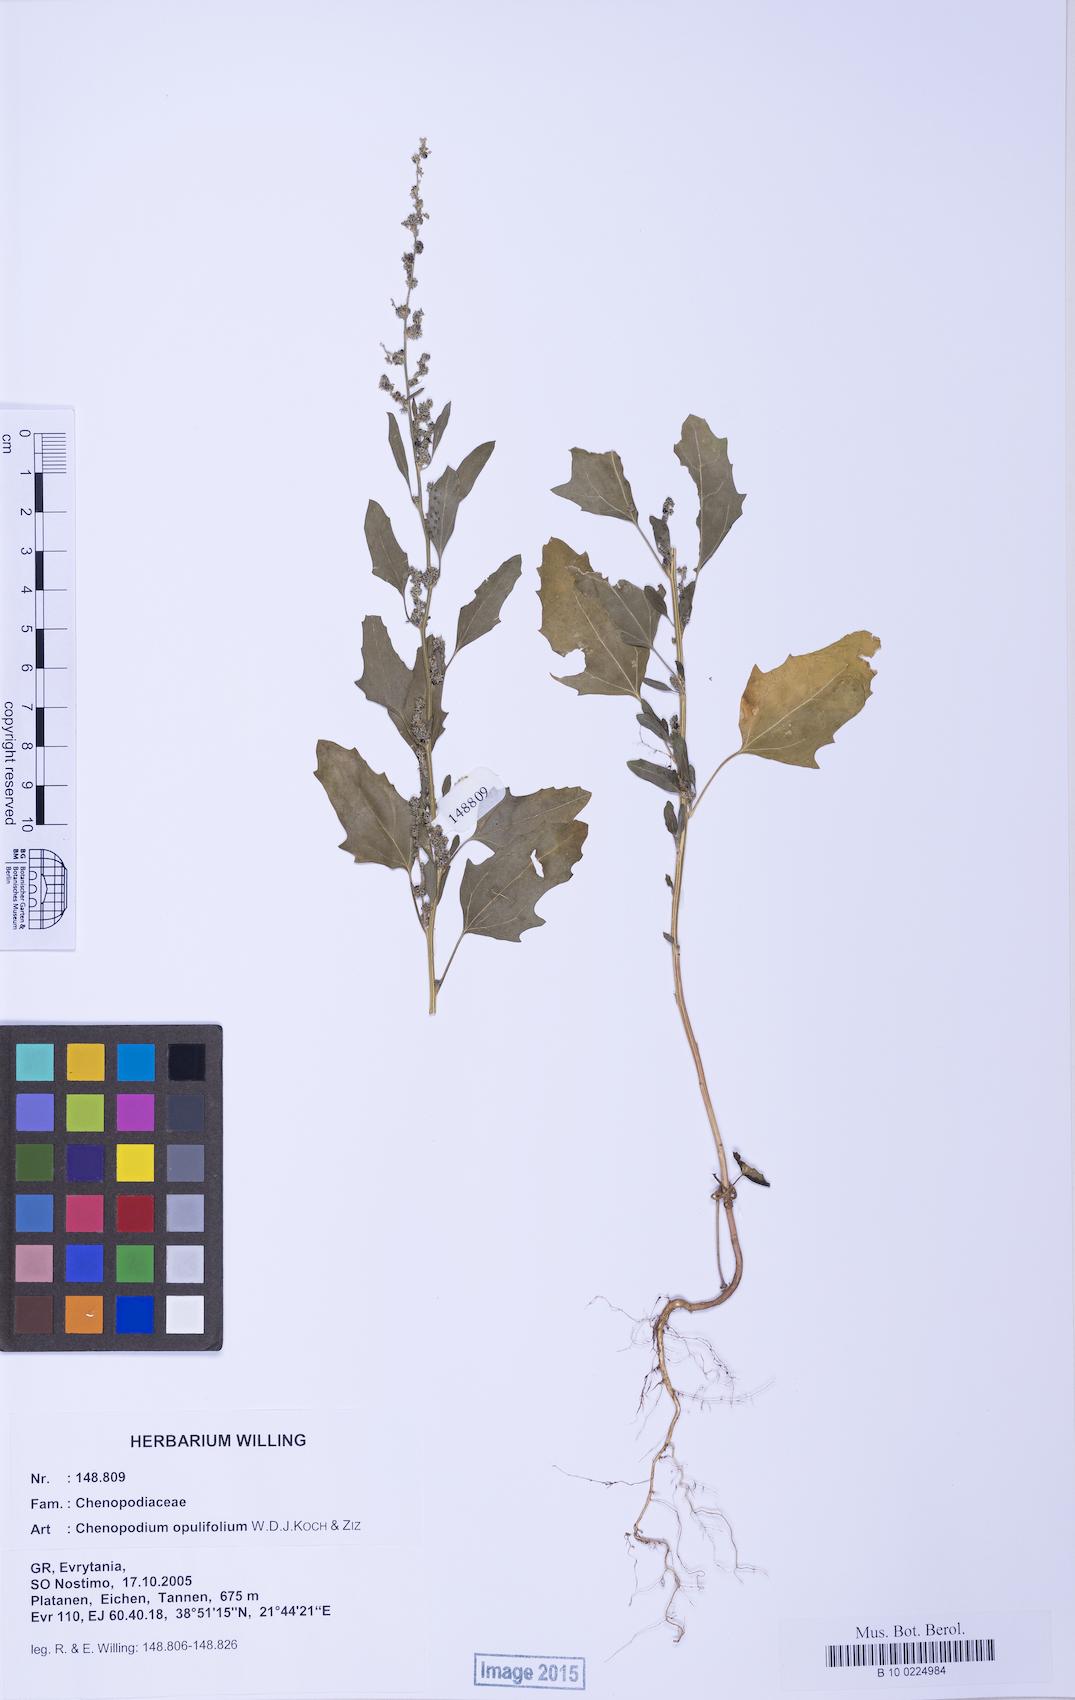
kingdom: Plantae
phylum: Tracheophyta
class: Magnoliopsida
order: Caryophyllales
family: Amaranthaceae
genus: Chenopodium
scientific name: Chenopodium album
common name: Fat-hen
